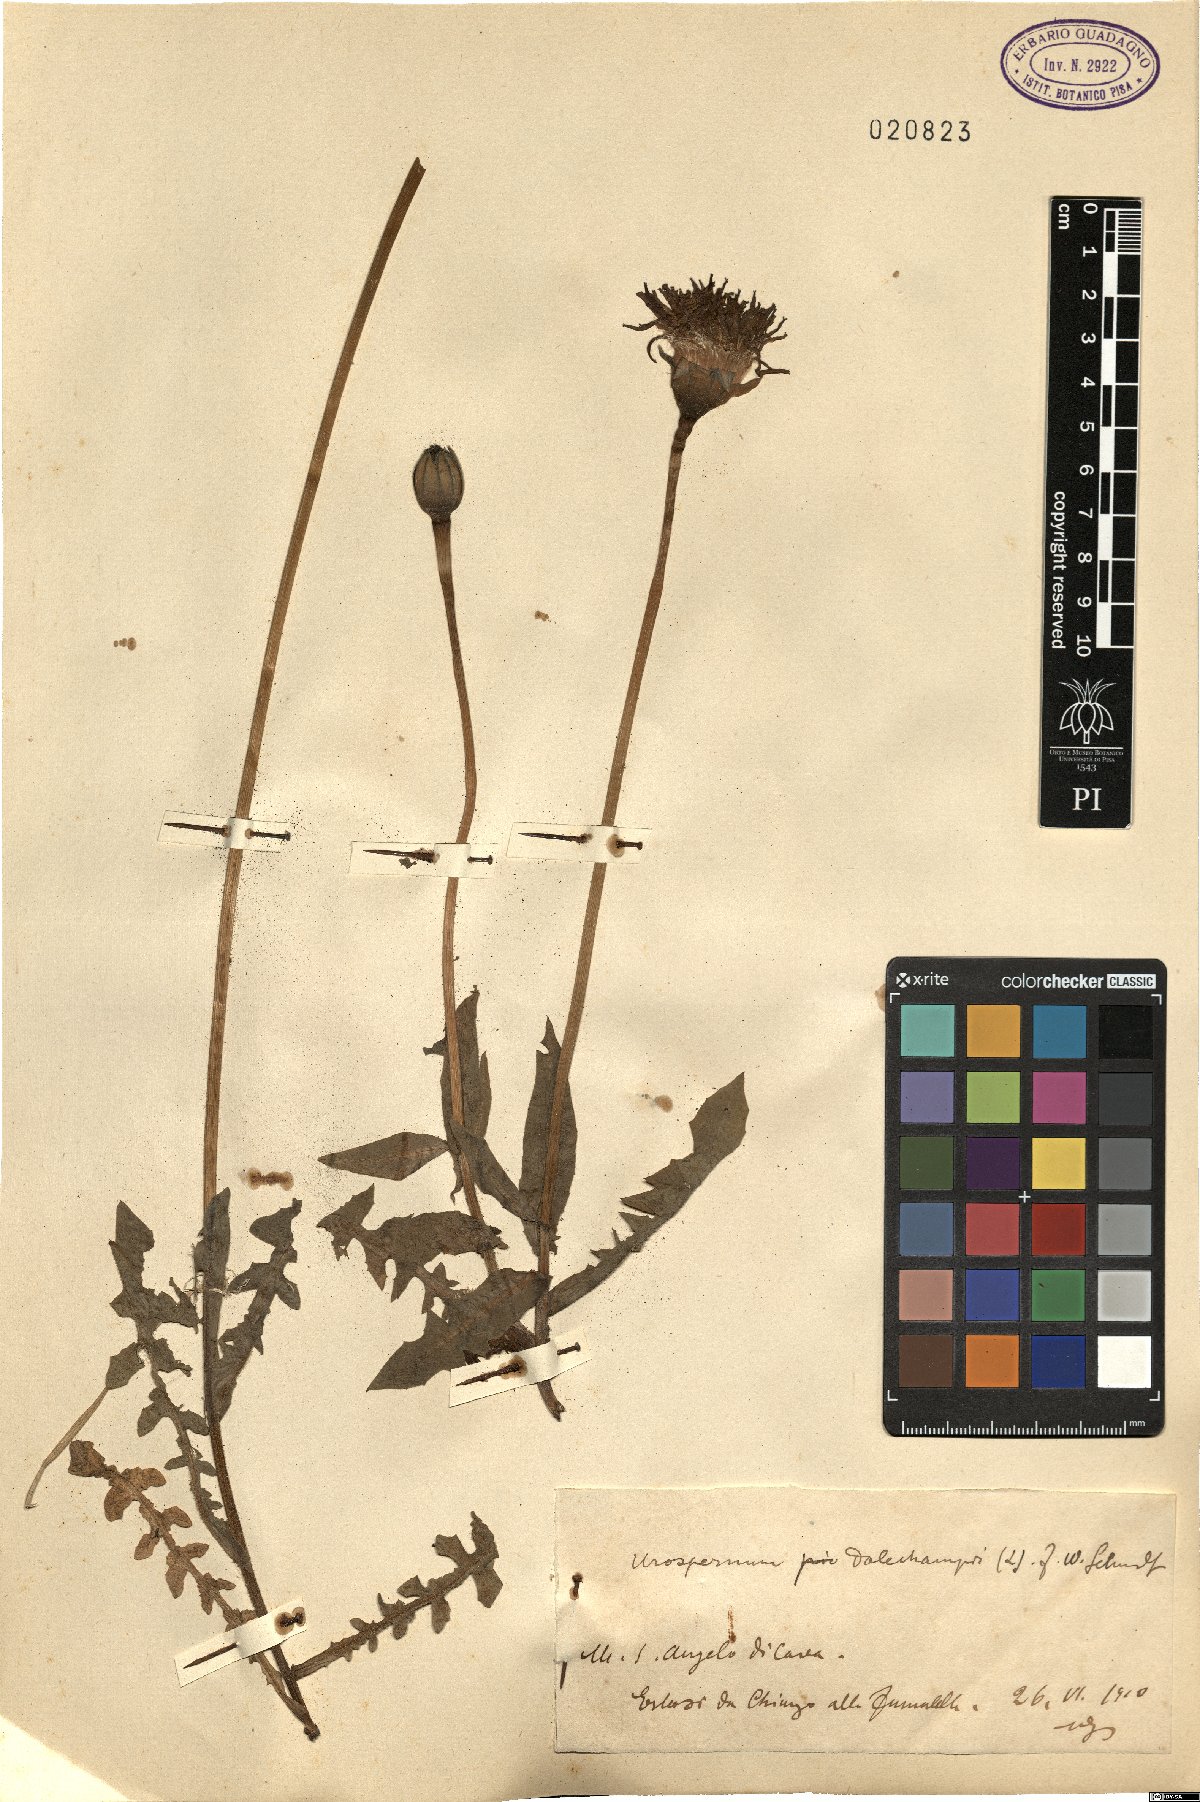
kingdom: Plantae
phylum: Tracheophyta
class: Magnoliopsida
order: Asterales
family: Asteraceae
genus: Urospermum
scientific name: Urospermum dalechampii
